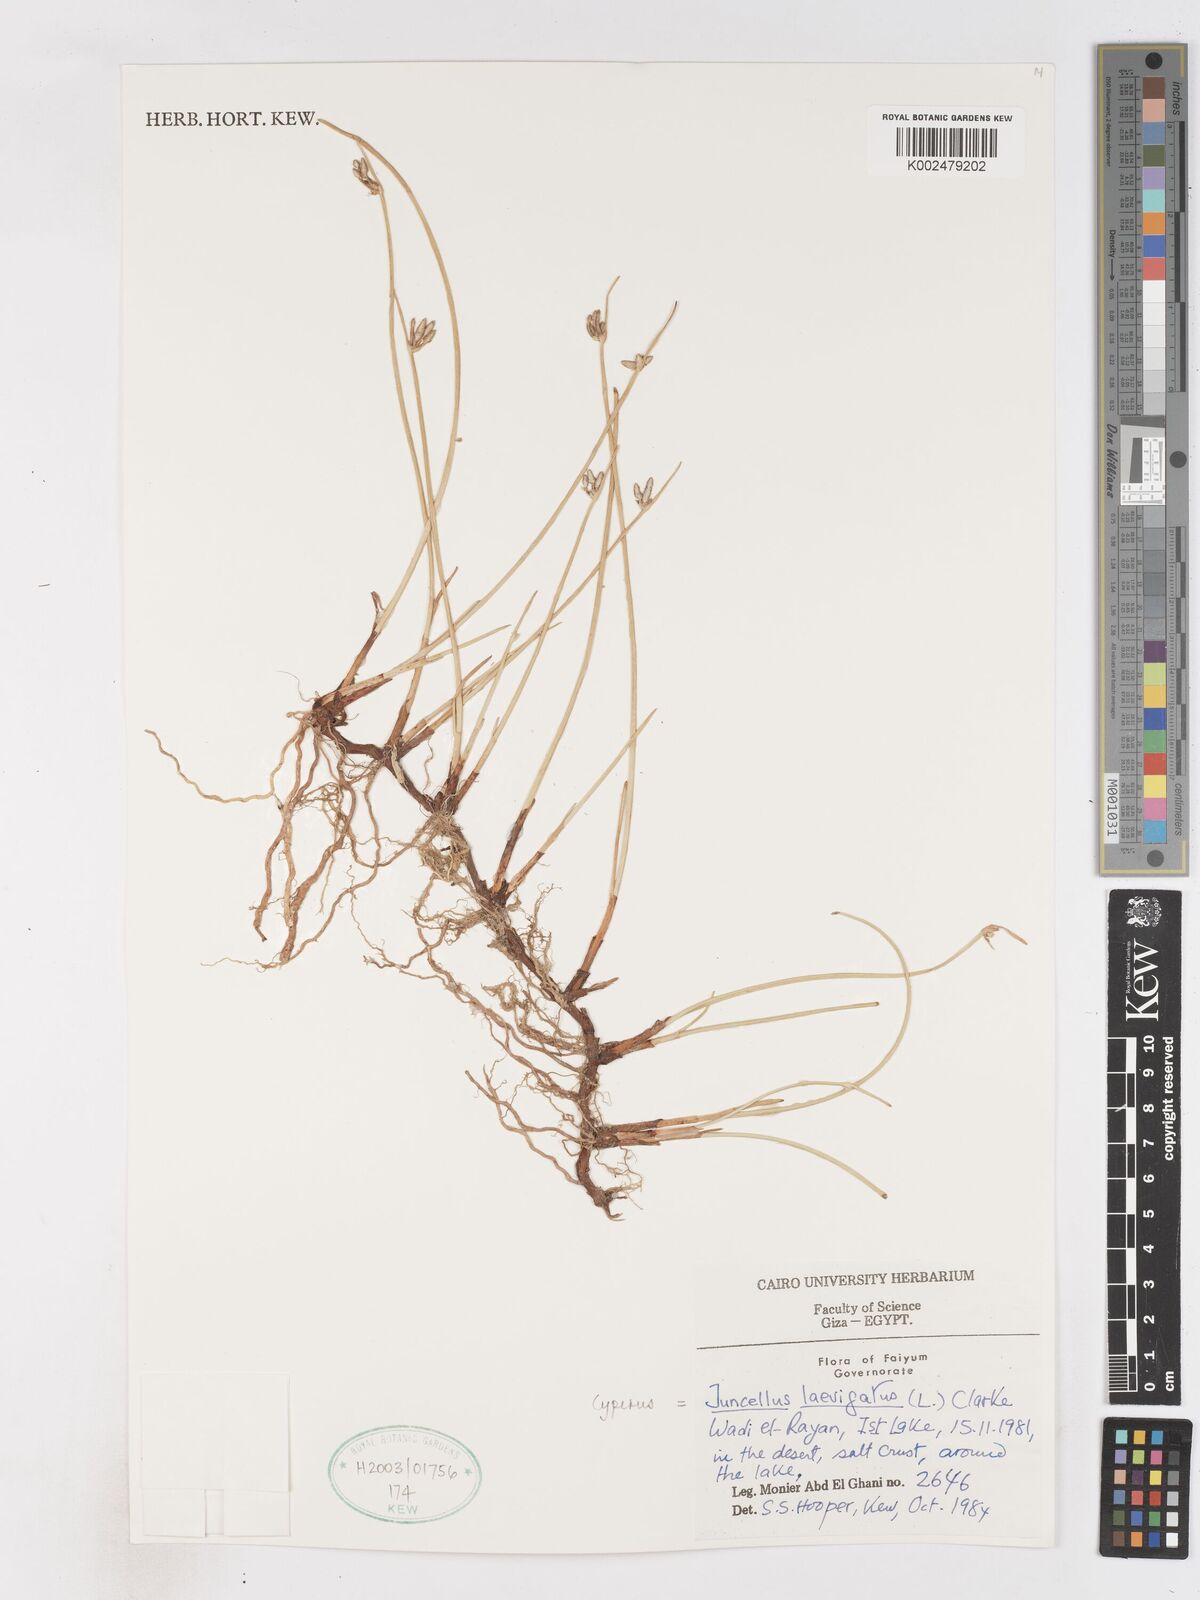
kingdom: Plantae
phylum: Tracheophyta
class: Liliopsida
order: Poales
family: Cyperaceae
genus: Cyperus
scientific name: Cyperus laevigatus
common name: Smooth flat sedge
